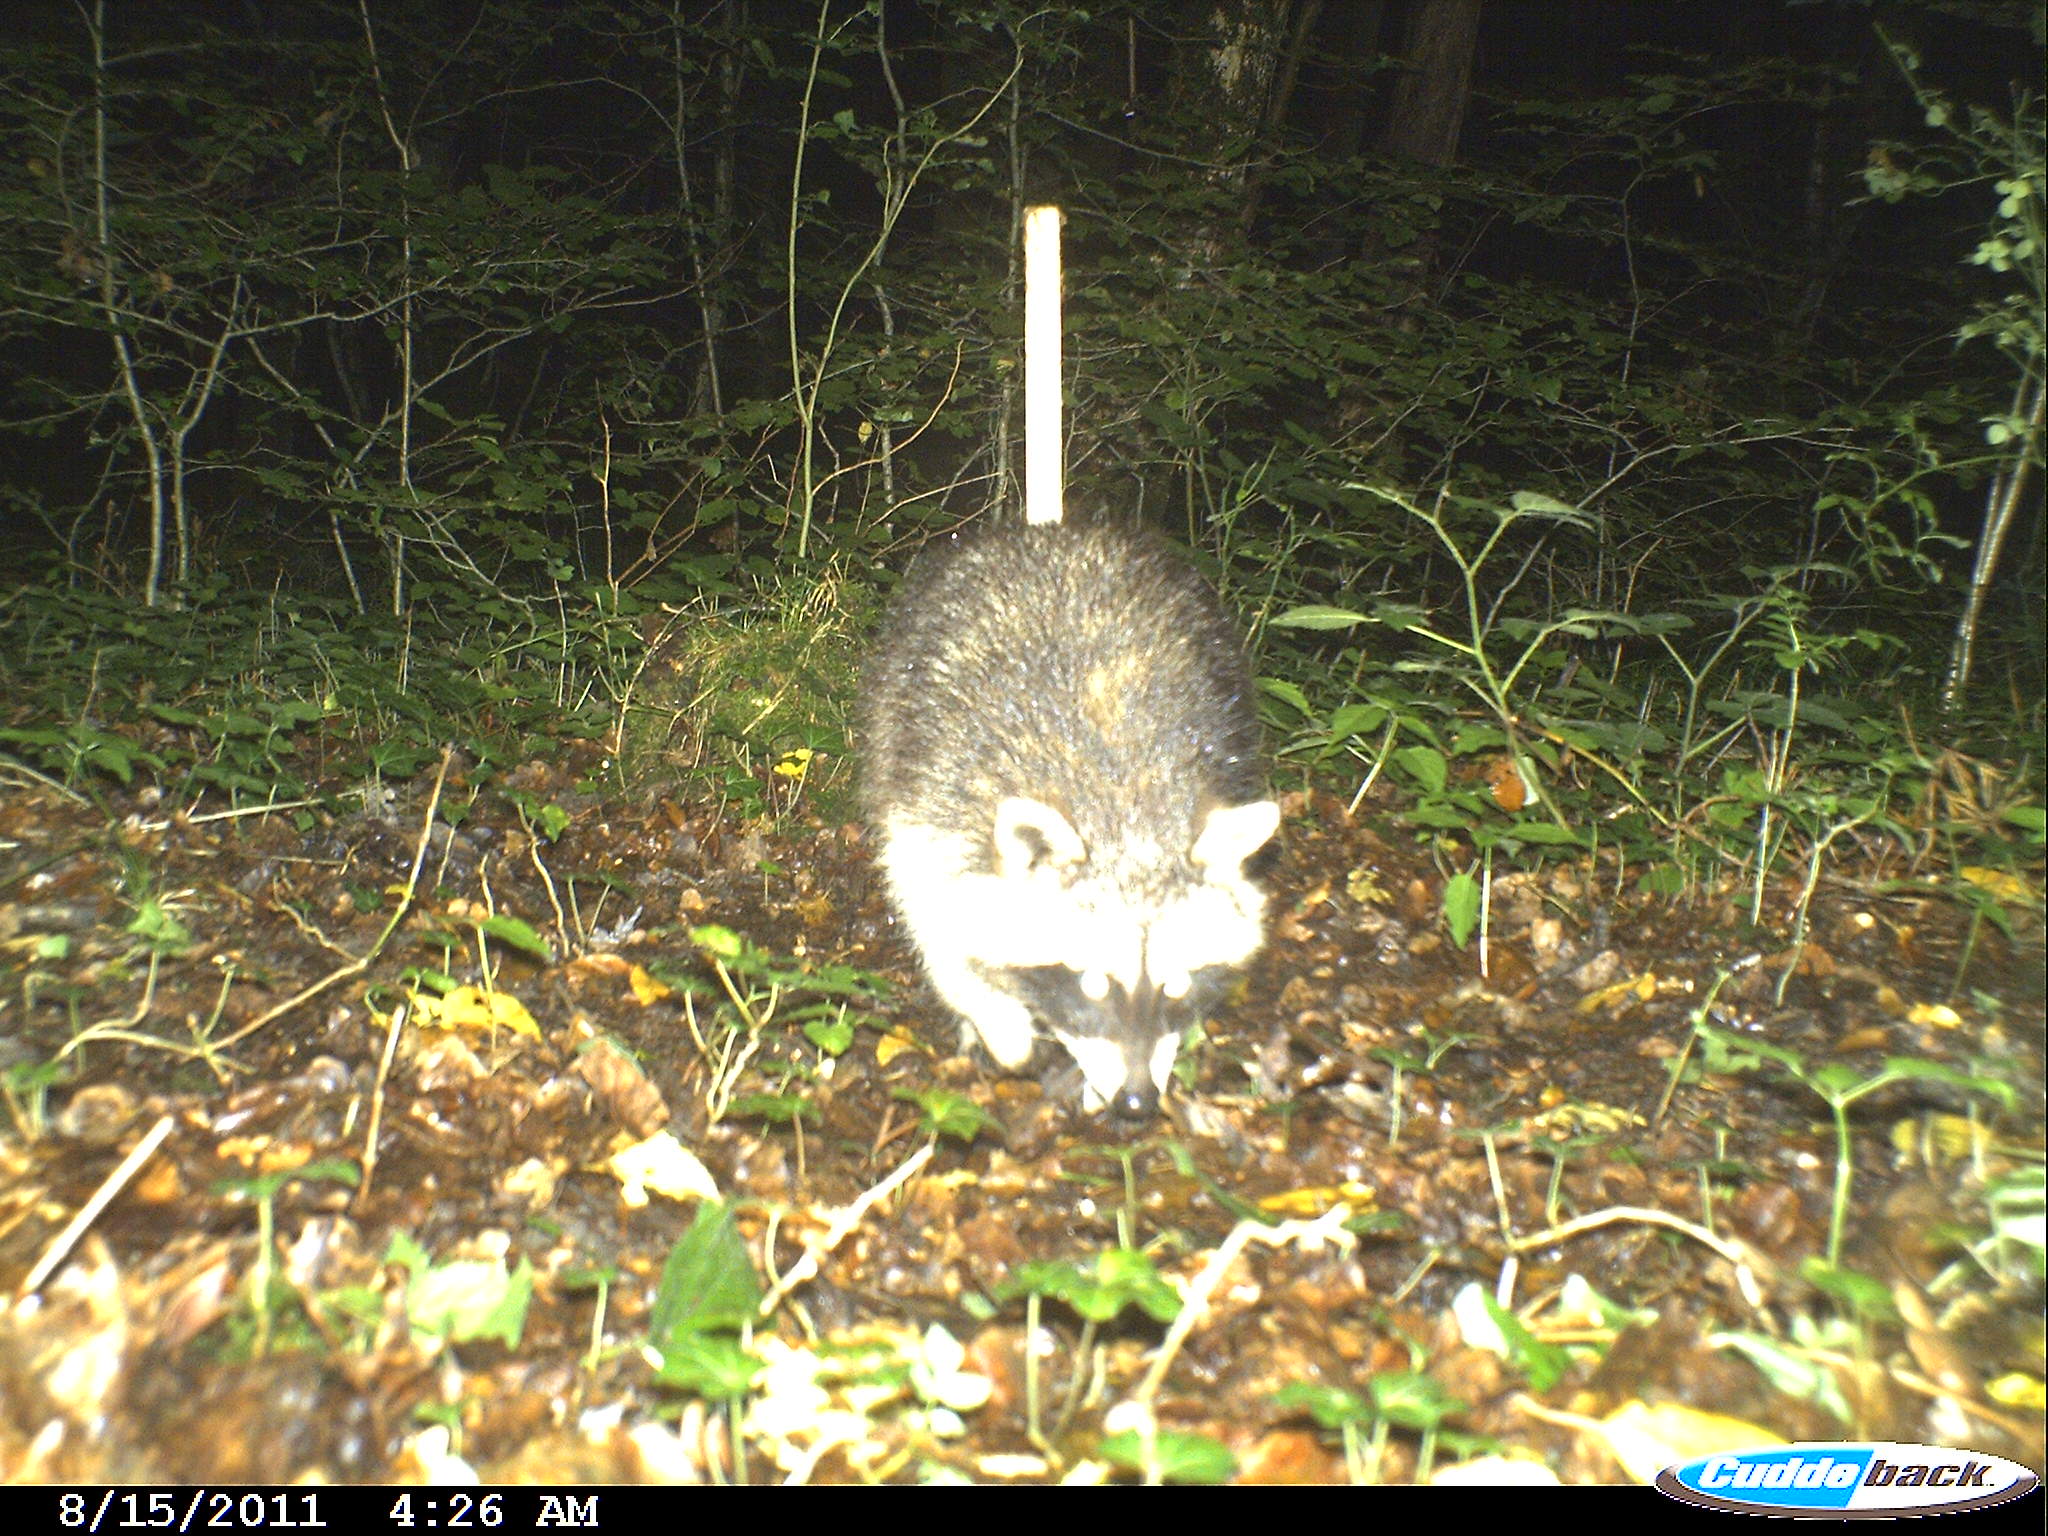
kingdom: Animalia
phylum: Chordata
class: Mammalia
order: Carnivora
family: Procyonidae
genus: Procyon
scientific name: Procyon lotor
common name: Raccoon
